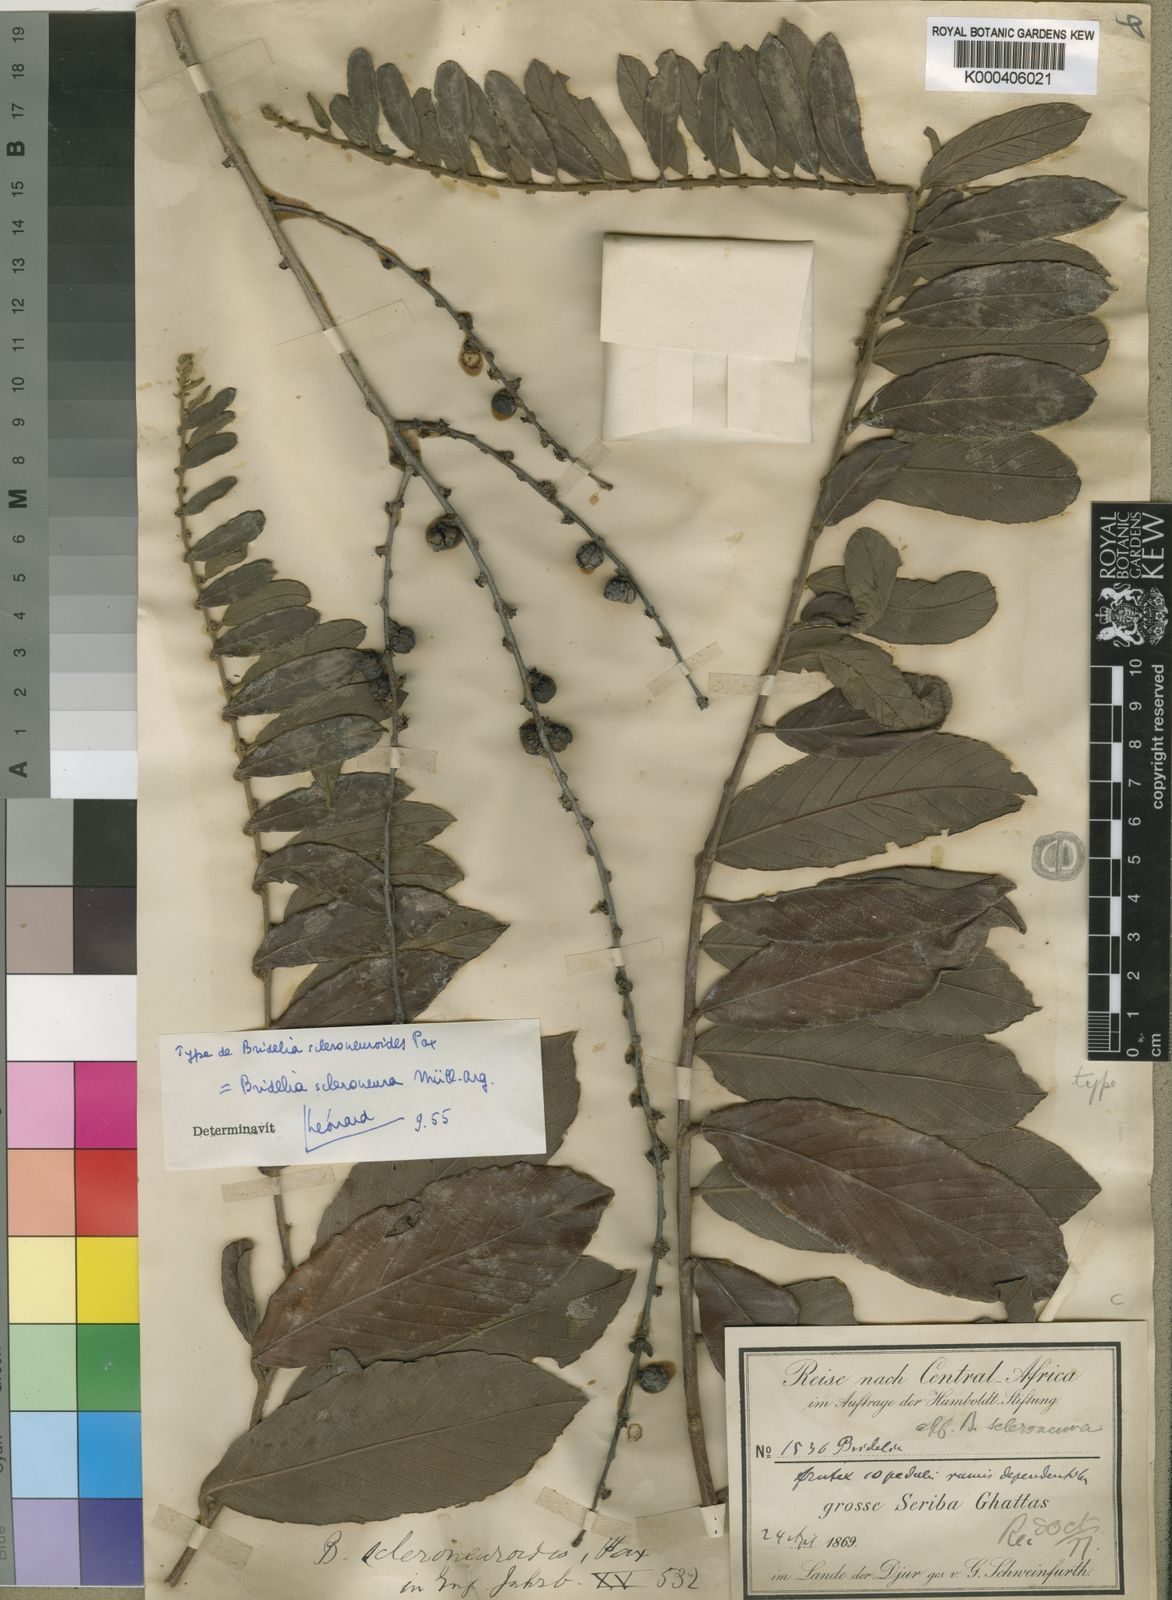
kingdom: Plantae
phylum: Tracheophyta
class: Magnoliopsida
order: Malpighiales
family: Phyllanthaceae
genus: Bridelia
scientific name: Bridelia
